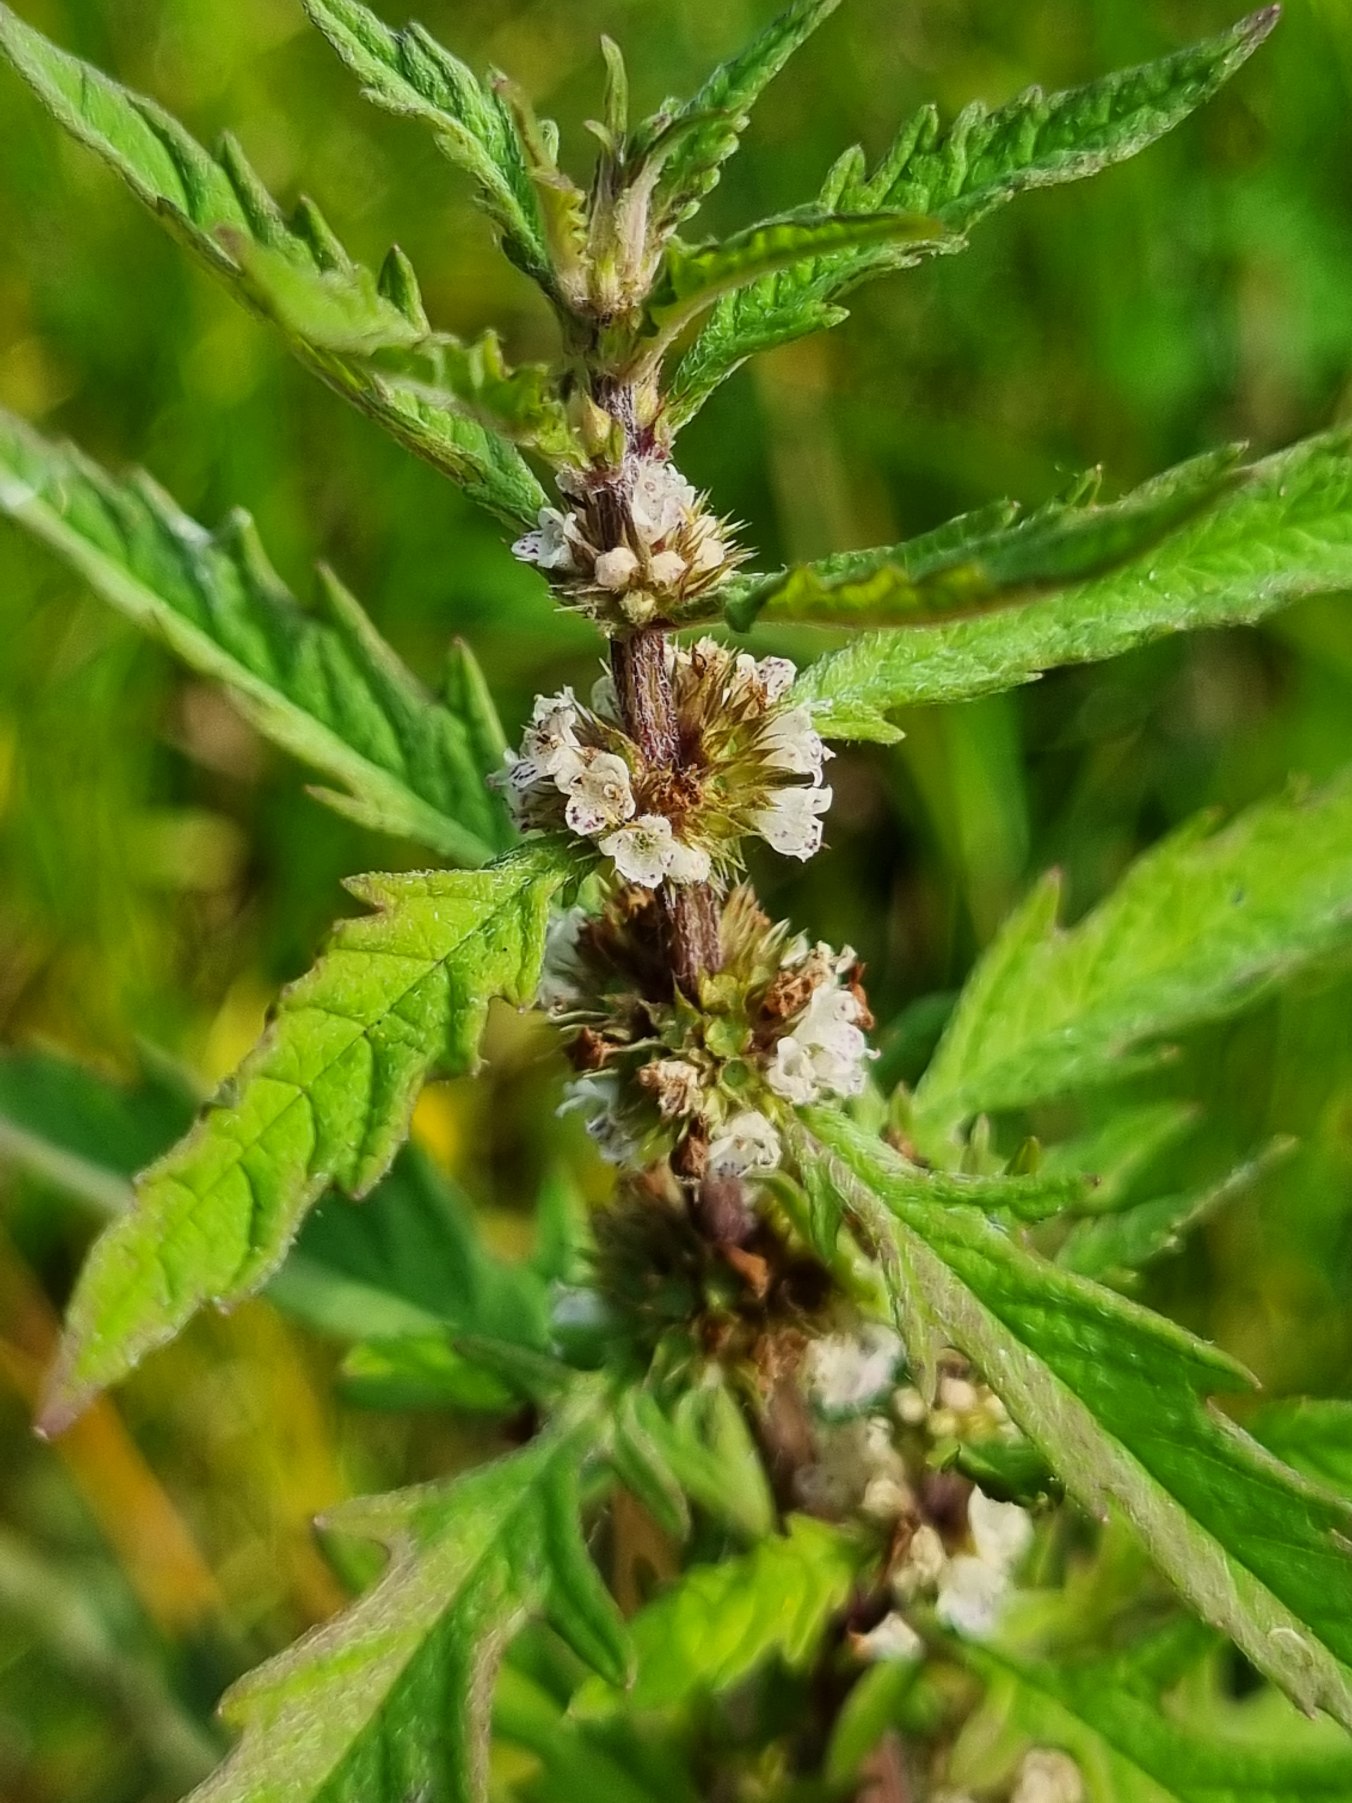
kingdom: Plantae
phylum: Tracheophyta
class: Magnoliopsida
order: Lamiales
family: Lamiaceae
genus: Lycopus
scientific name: Lycopus europaeus
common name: Sværtevæld
